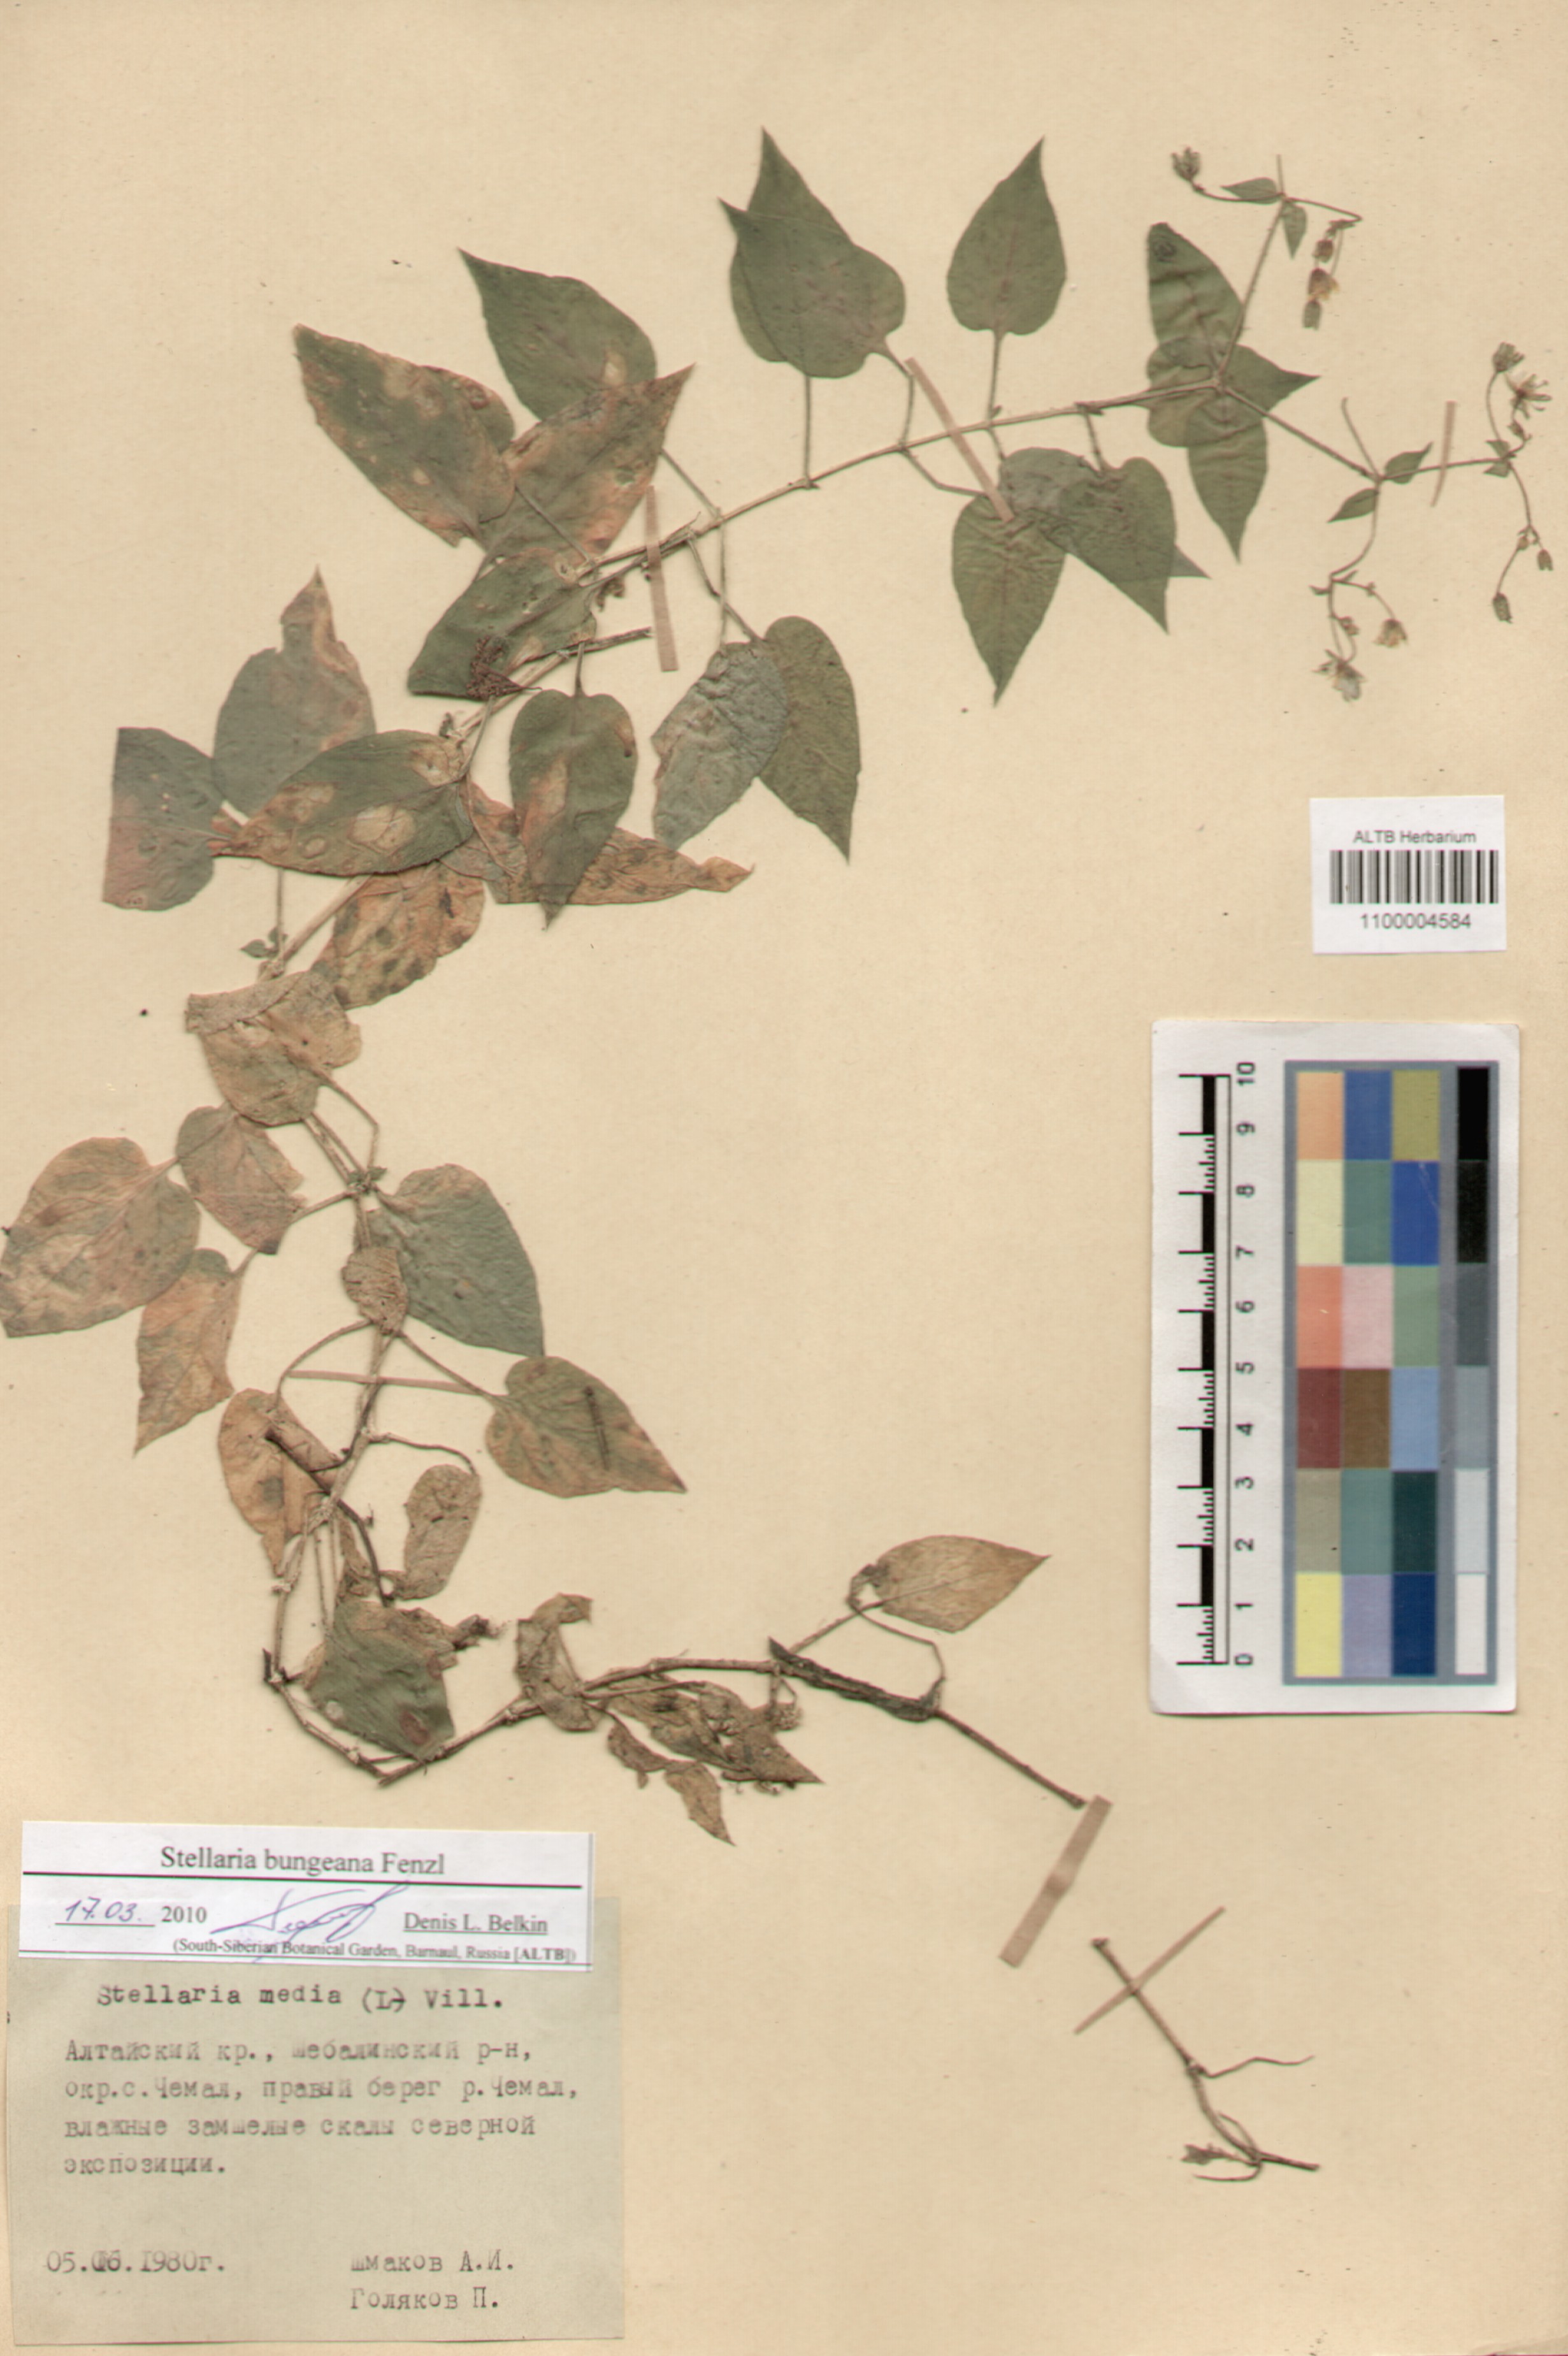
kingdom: Plantae
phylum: Tracheophyta
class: Magnoliopsida
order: Caryophyllales
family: Caryophyllaceae
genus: Stellaria
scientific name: Stellaria bungeana
